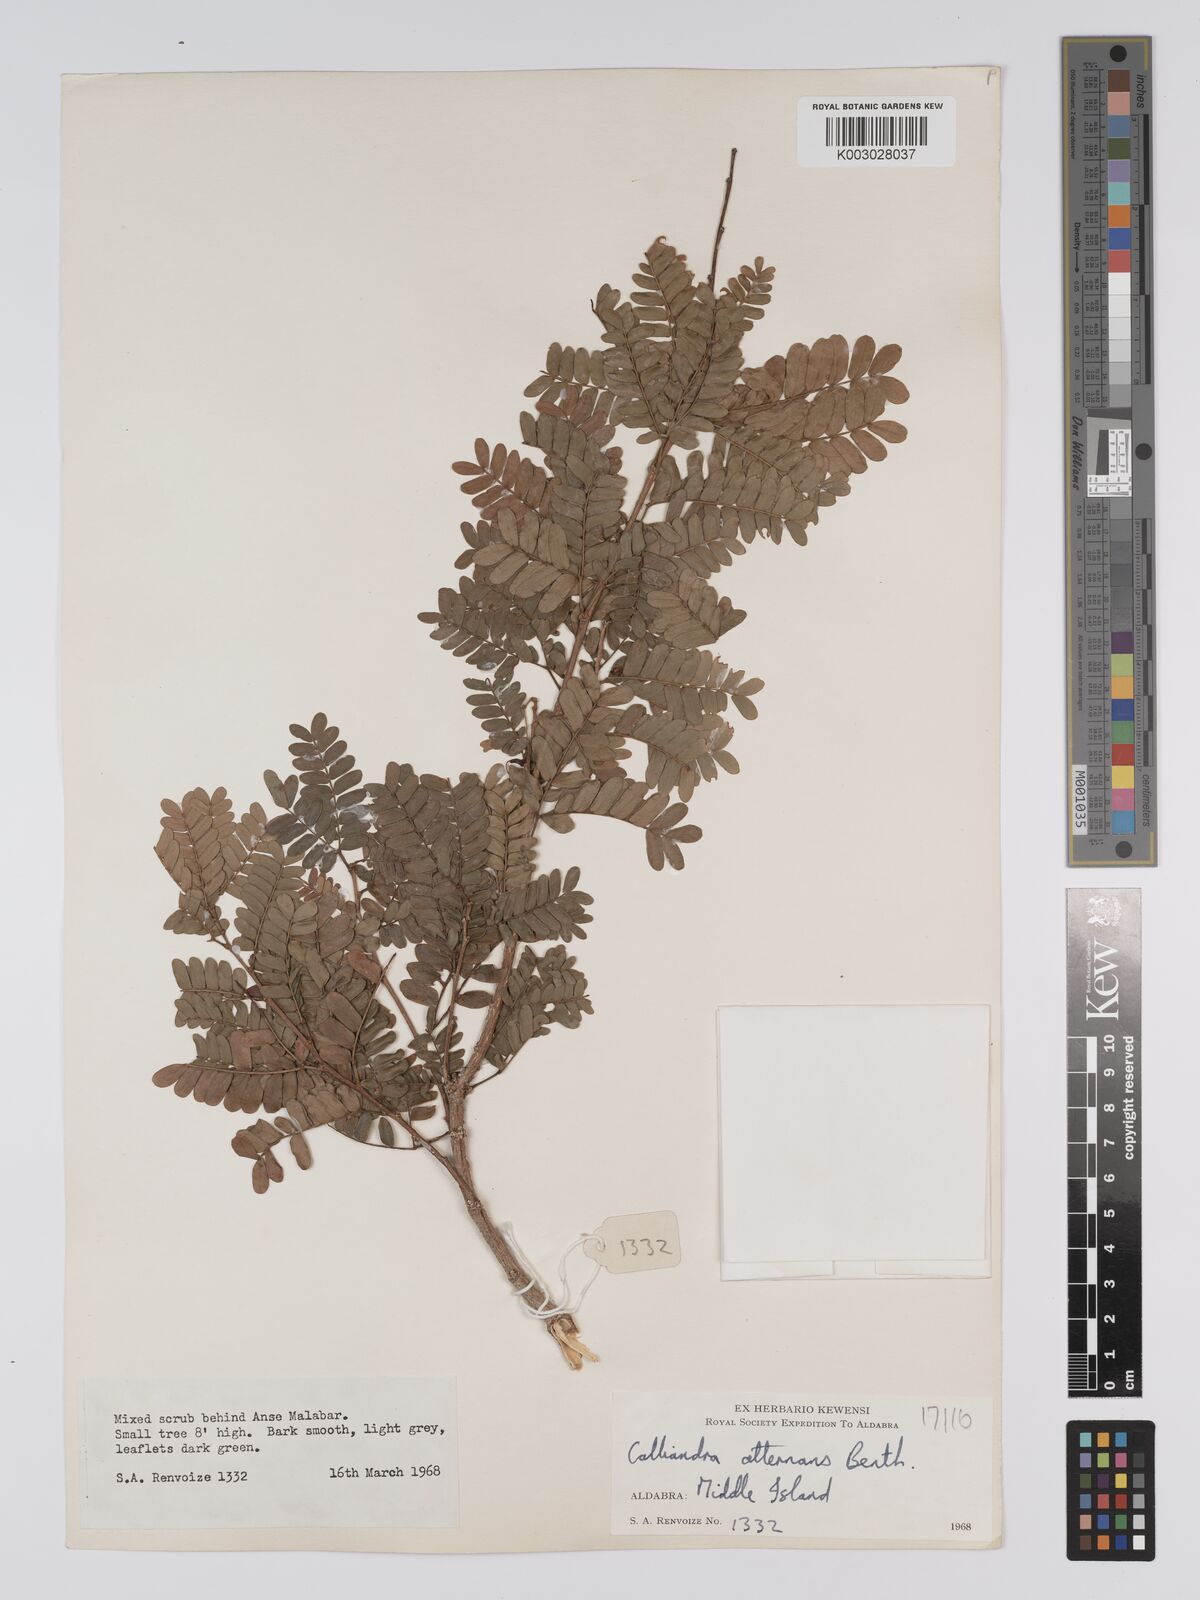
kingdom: Plantae
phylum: Tracheophyta
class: Magnoliopsida
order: Fabales
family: Fabaceae
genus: Viguieranthus
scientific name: Viguieranthus alternans
